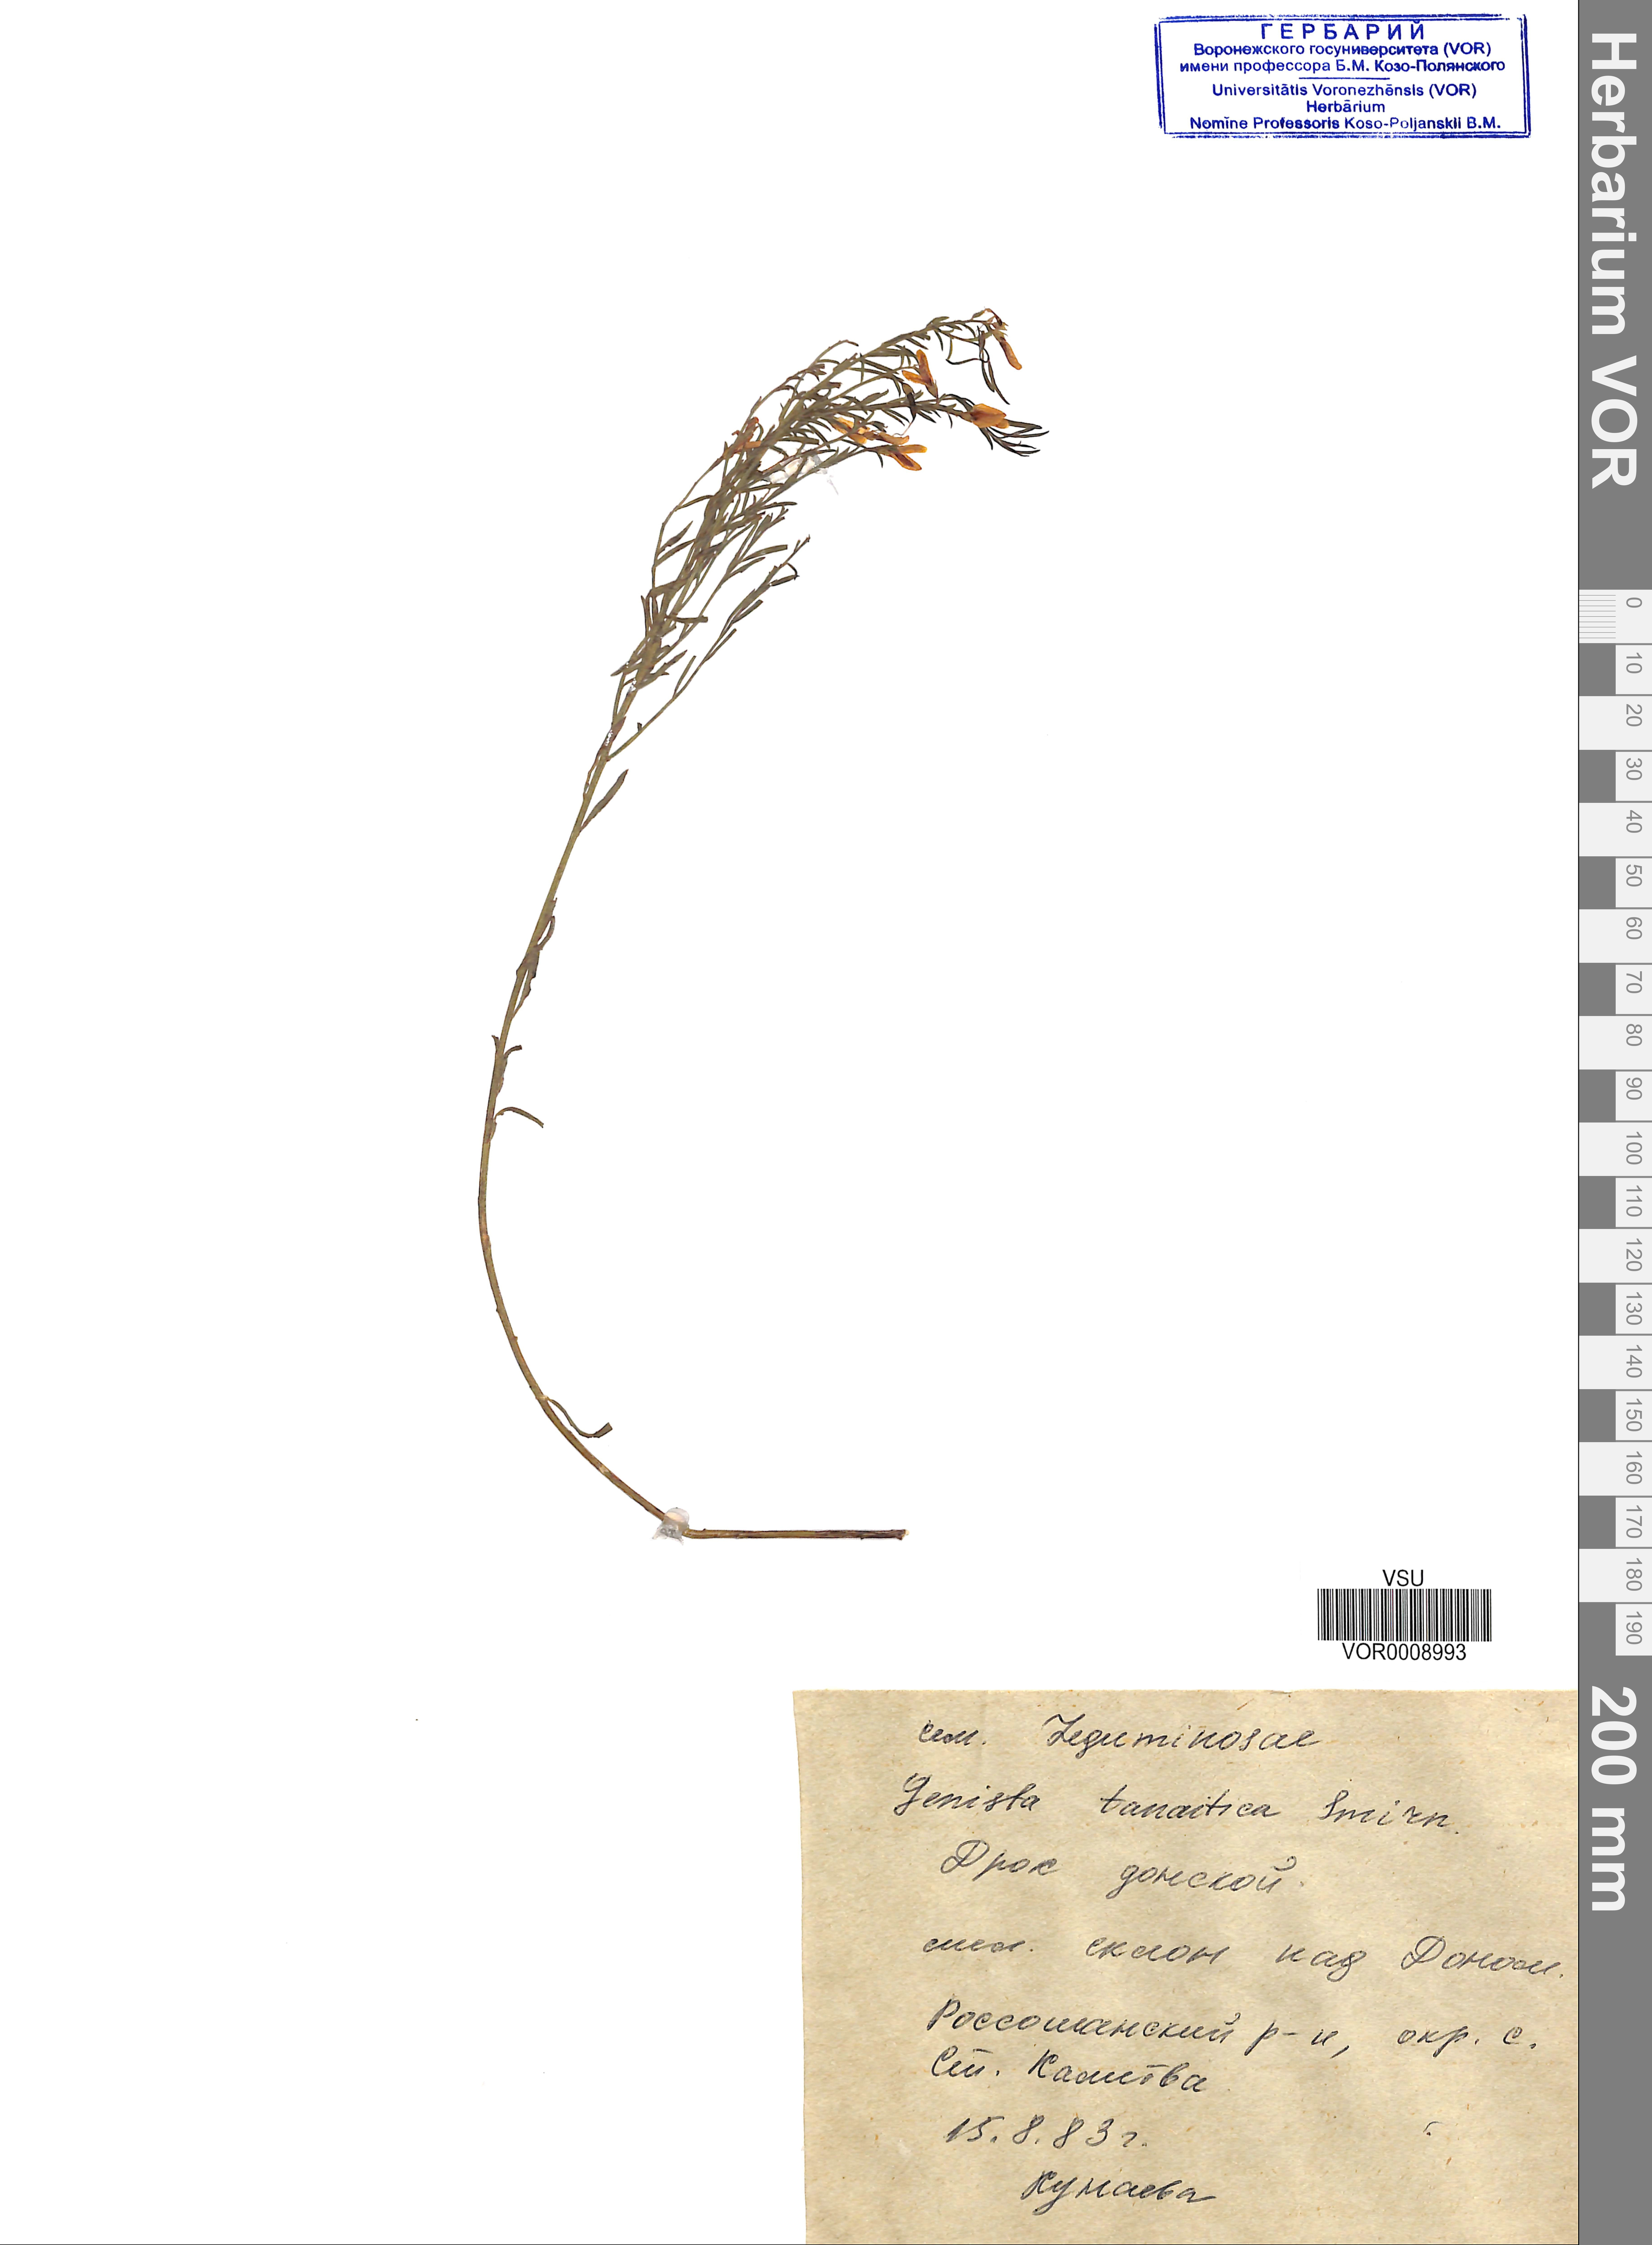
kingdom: Plantae
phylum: Tracheophyta
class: Magnoliopsida
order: Fabales
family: Fabaceae
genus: Genista
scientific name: Genista tinctoria
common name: Dyer's greenweed
